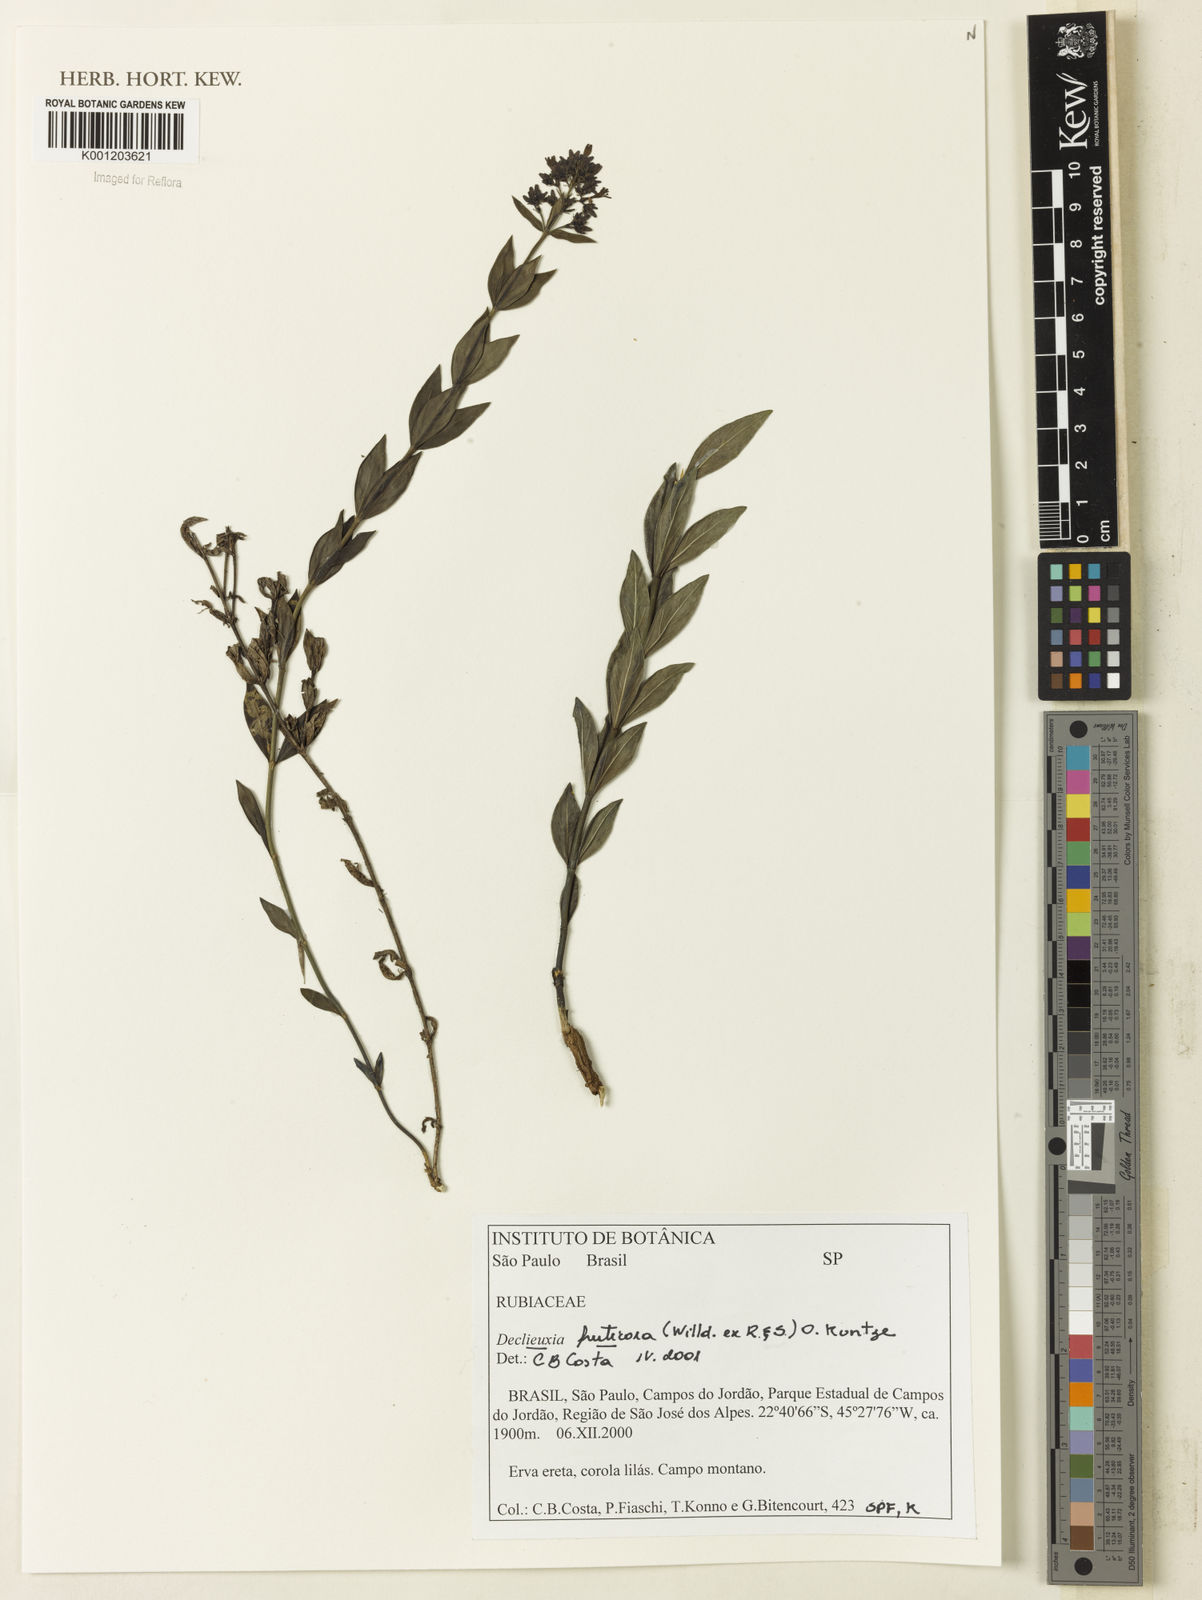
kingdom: Plantae
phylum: Tracheophyta
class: Magnoliopsida
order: Gentianales
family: Rubiaceae
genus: Declieuxia
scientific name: Declieuxia fruticosa
